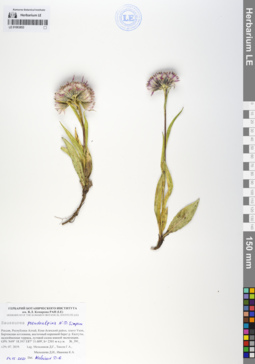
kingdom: Plantae
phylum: Tracheophyta
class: Magnoliopsida
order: Asterales
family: Asteraceae
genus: Saussurea
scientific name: Saussurea pseudoalpina
